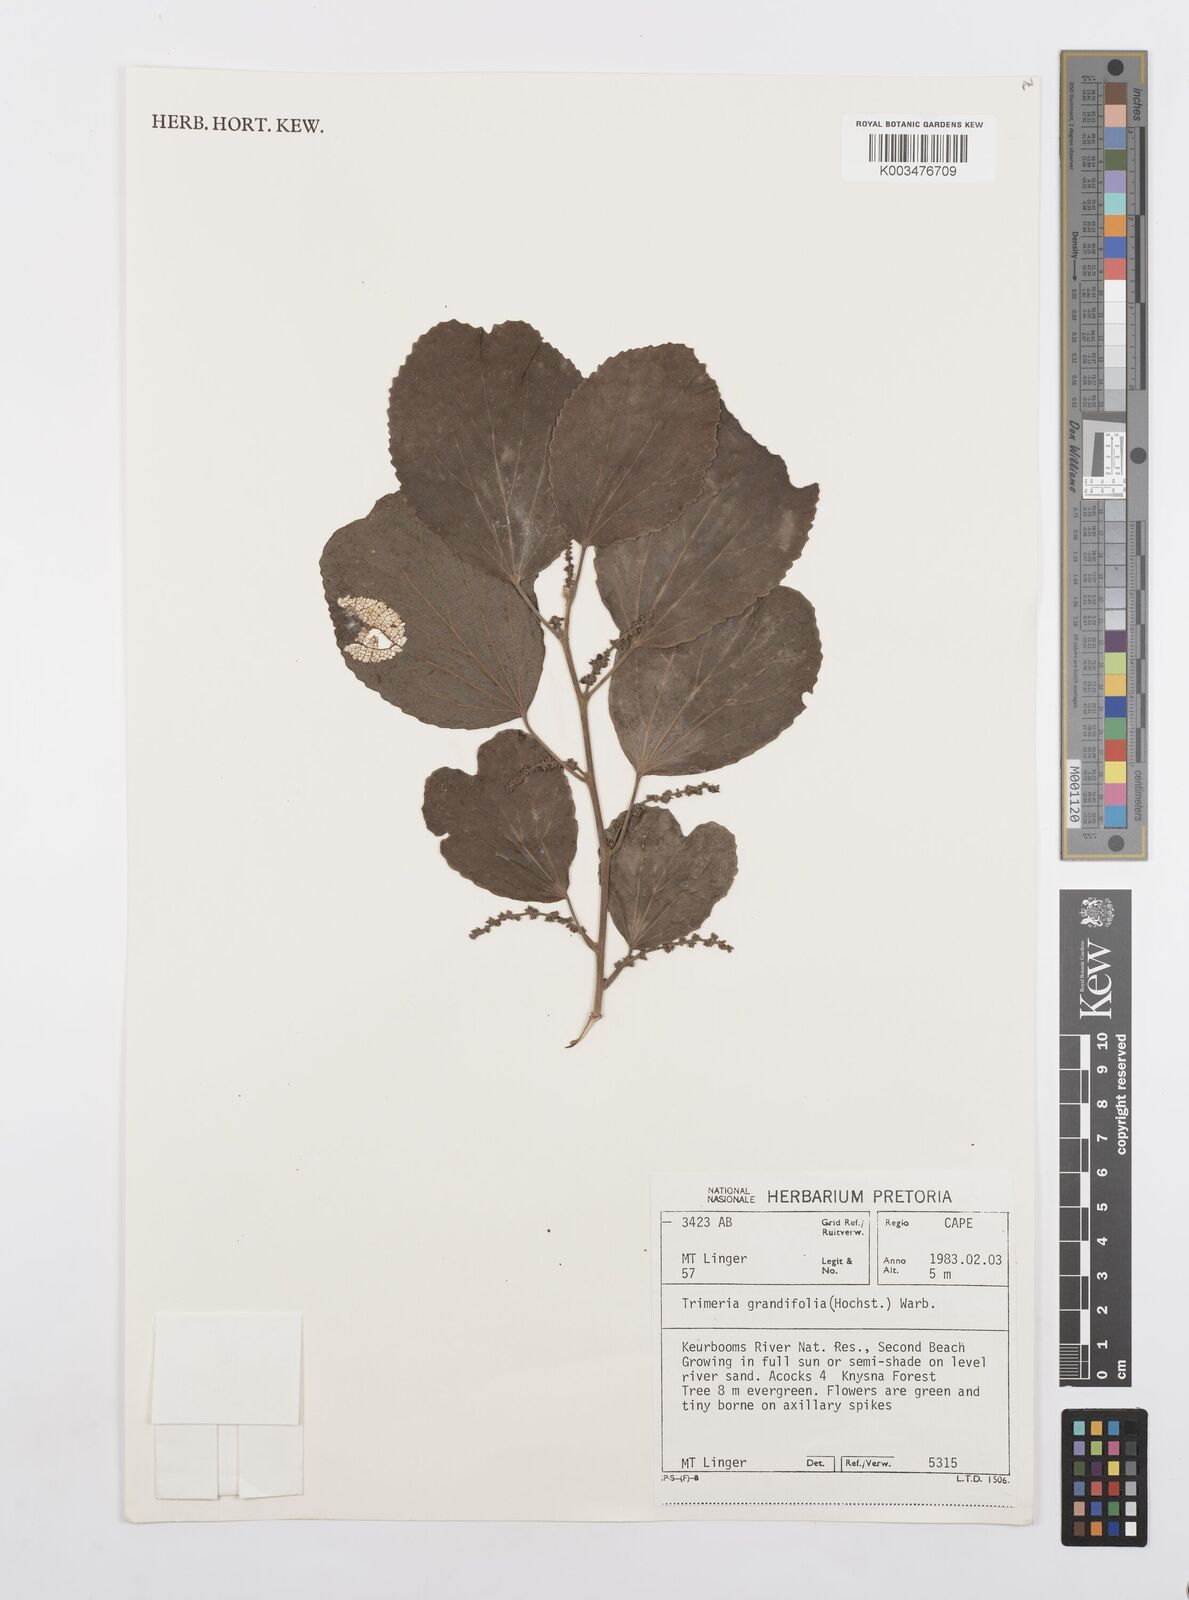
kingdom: Plantae
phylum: Tracheophyta
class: Magnoliopsida
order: Malpighiales
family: Salicaceae
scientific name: Salicaceae
